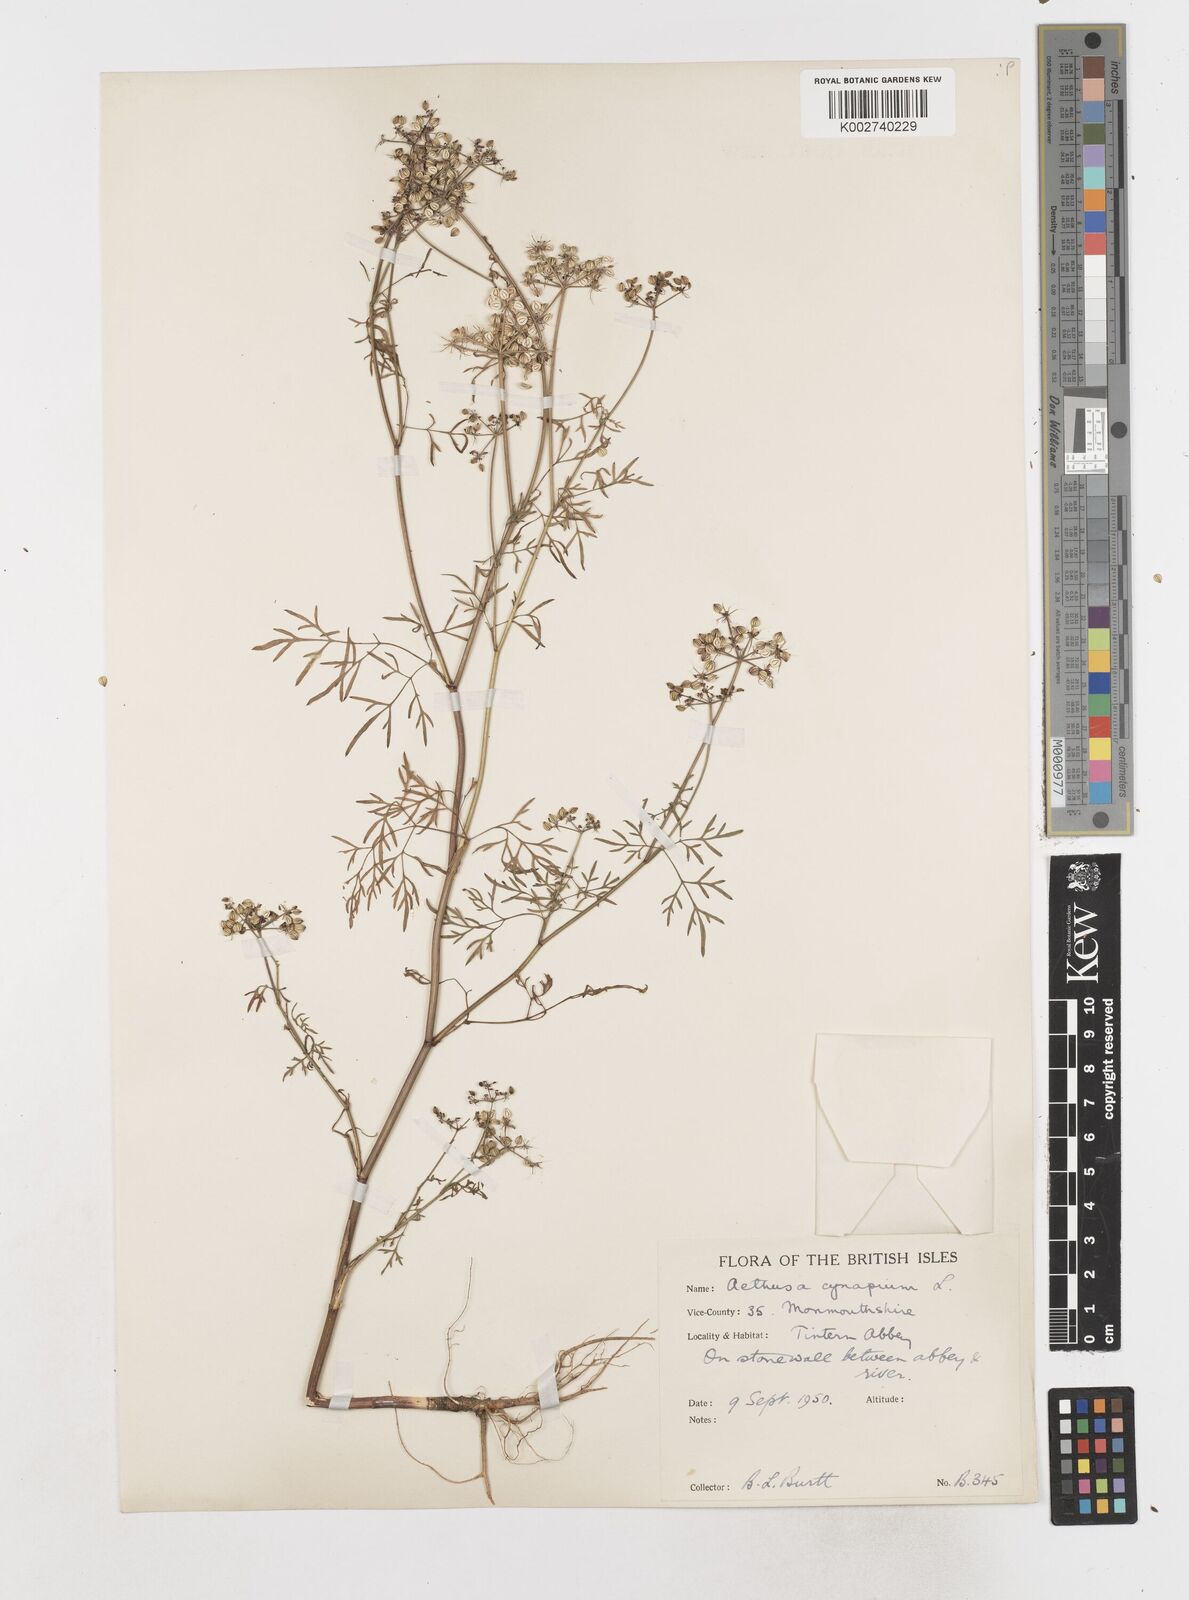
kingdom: Plantae
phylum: Tracheophyta
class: Magnoliopsida
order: Apiales
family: Apiaceae
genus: Aethusa
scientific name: Aethusa cynapium
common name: Fool's parsley
